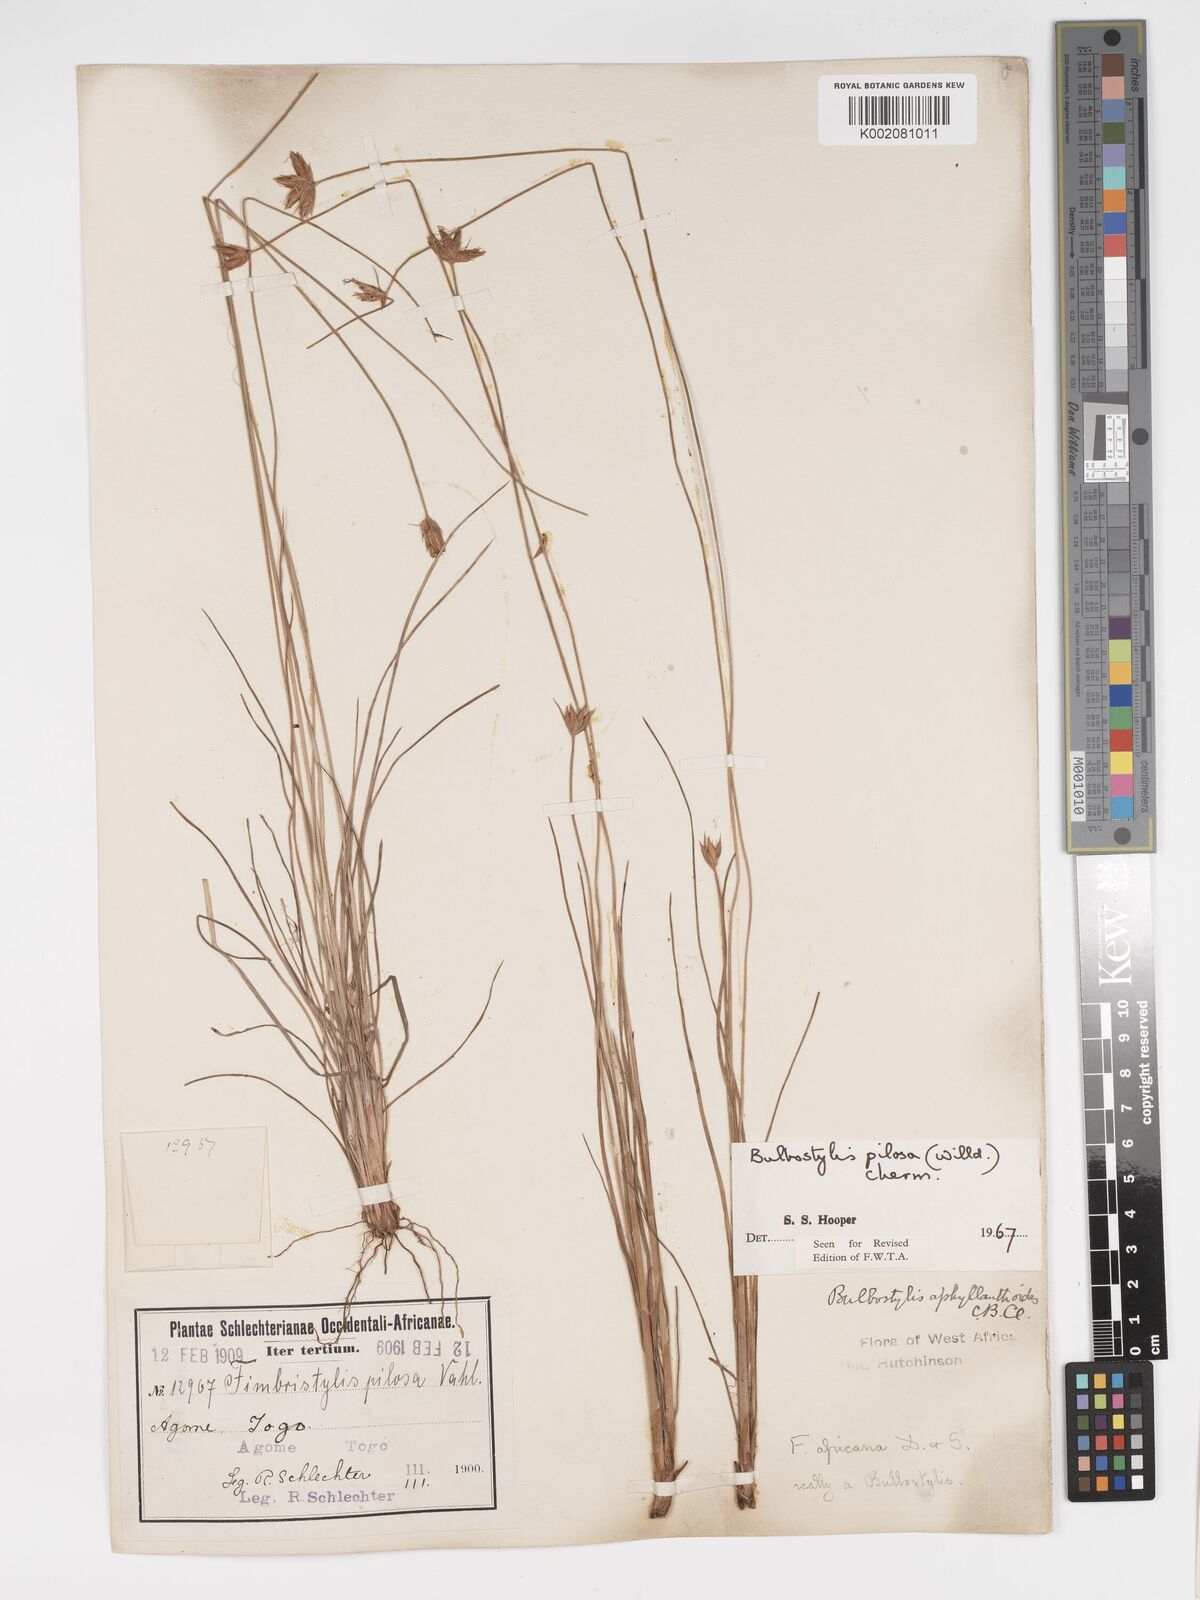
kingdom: Plantae
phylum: Tracheophyta
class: Liliopsida
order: Poales
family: Cyperaceae
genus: Bulbostylis
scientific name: Bulbostylis pilosa
